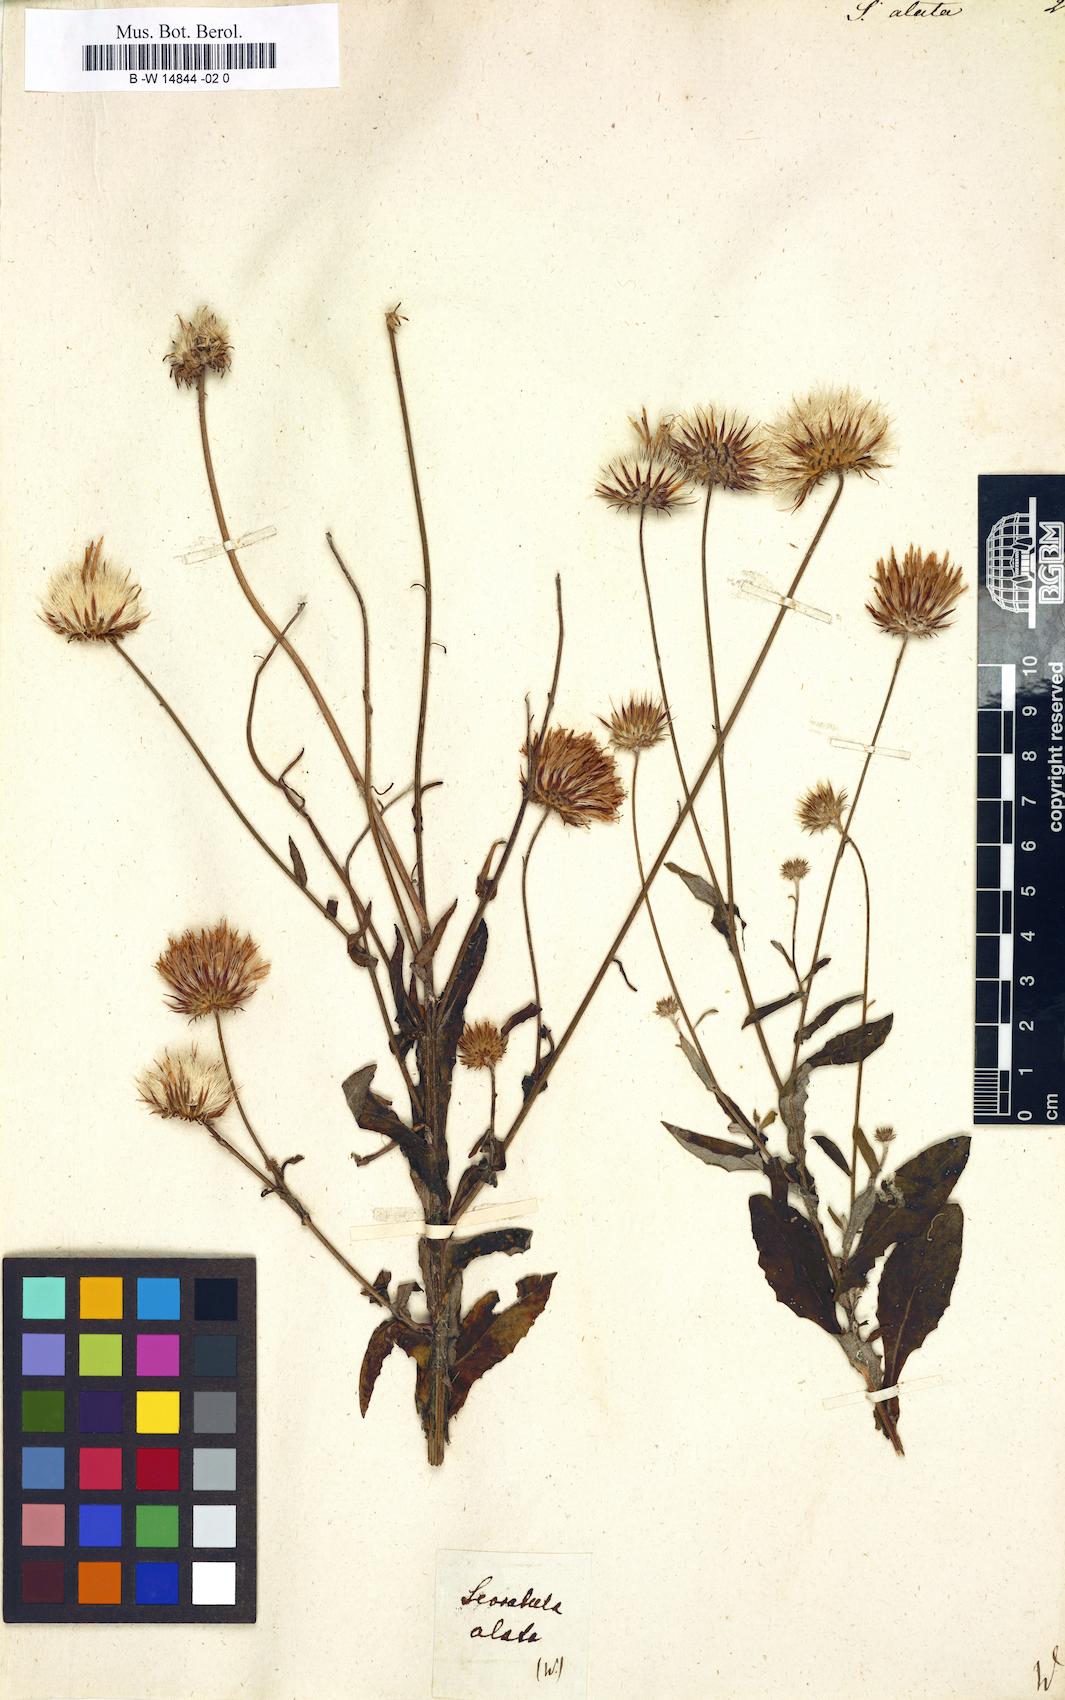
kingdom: Plantae
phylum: Tracheophyta
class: Magnoliopsida
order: Asterales
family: Asteraceae
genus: Serratula
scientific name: Serratula alata
